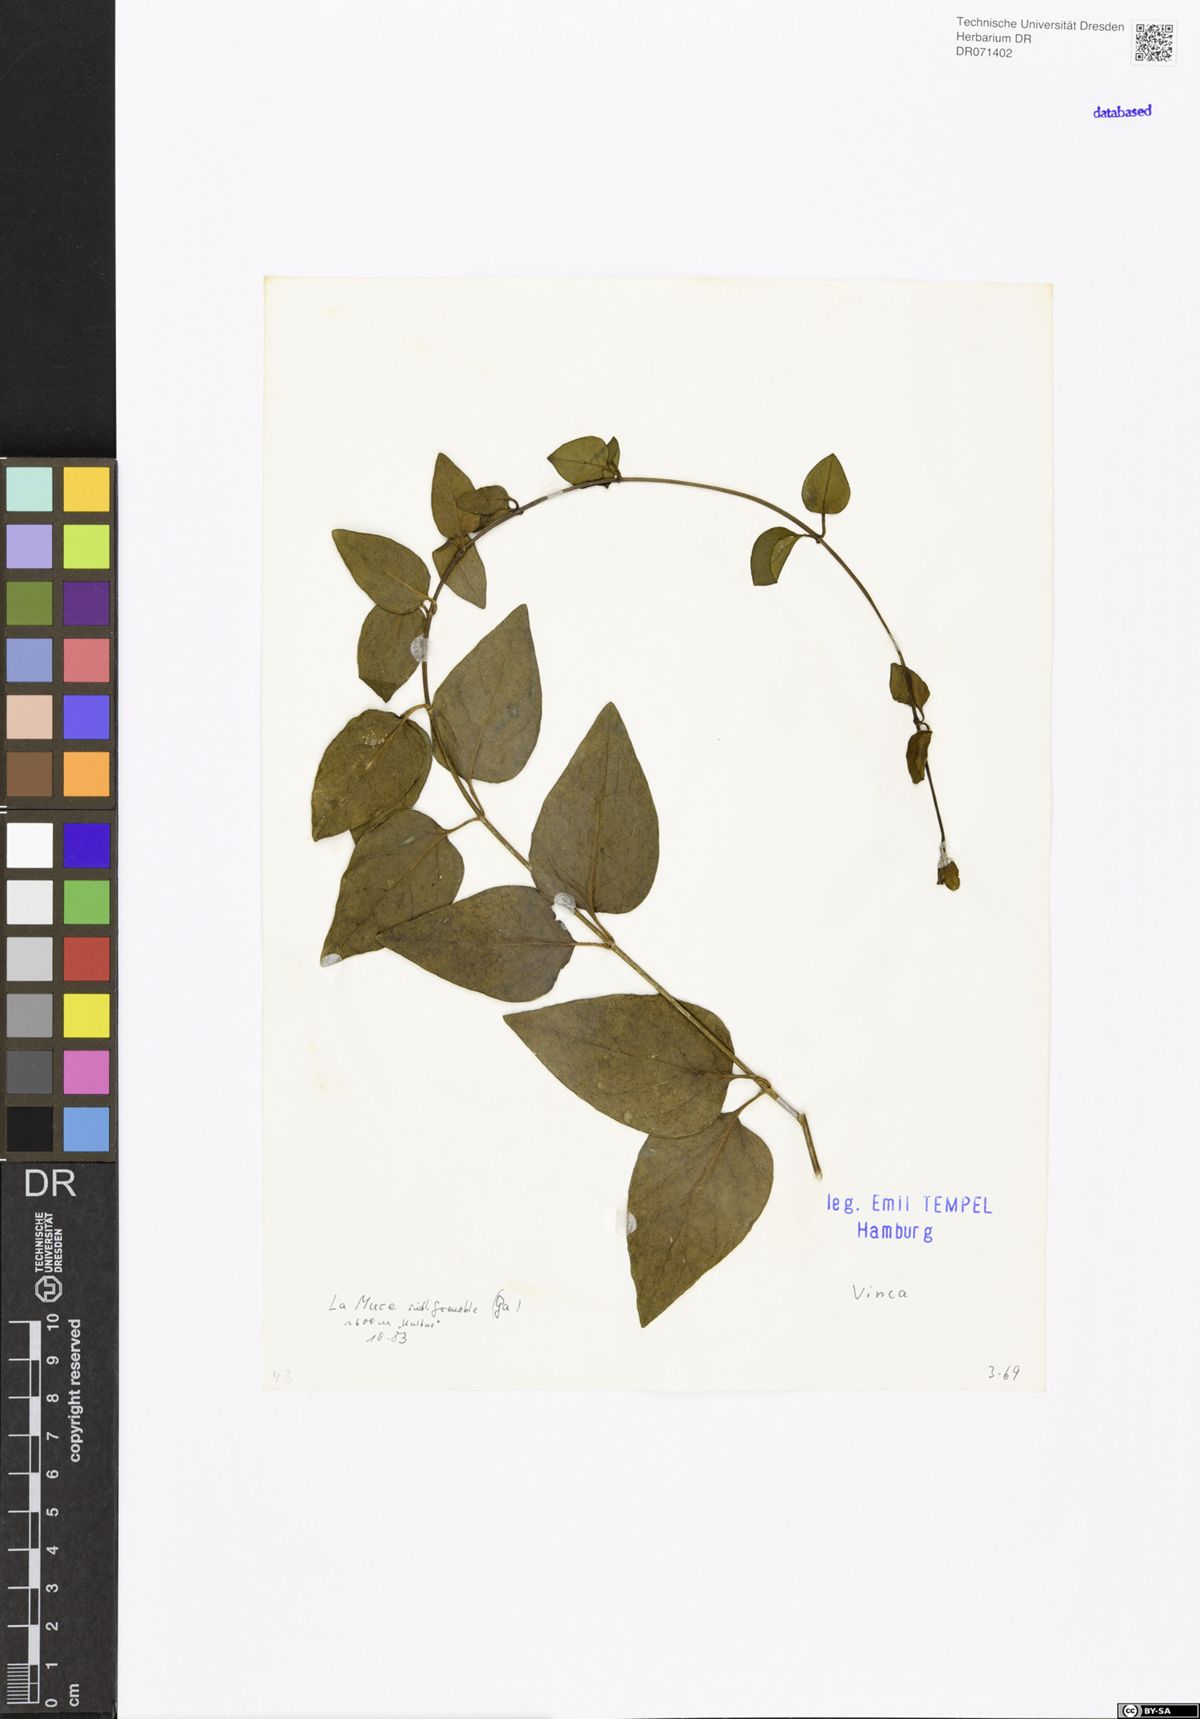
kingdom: Plantae
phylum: Tracheophyta
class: Magnoliopsida
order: Gentianales
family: Apocynaceae
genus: Vinca
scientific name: Vinca
